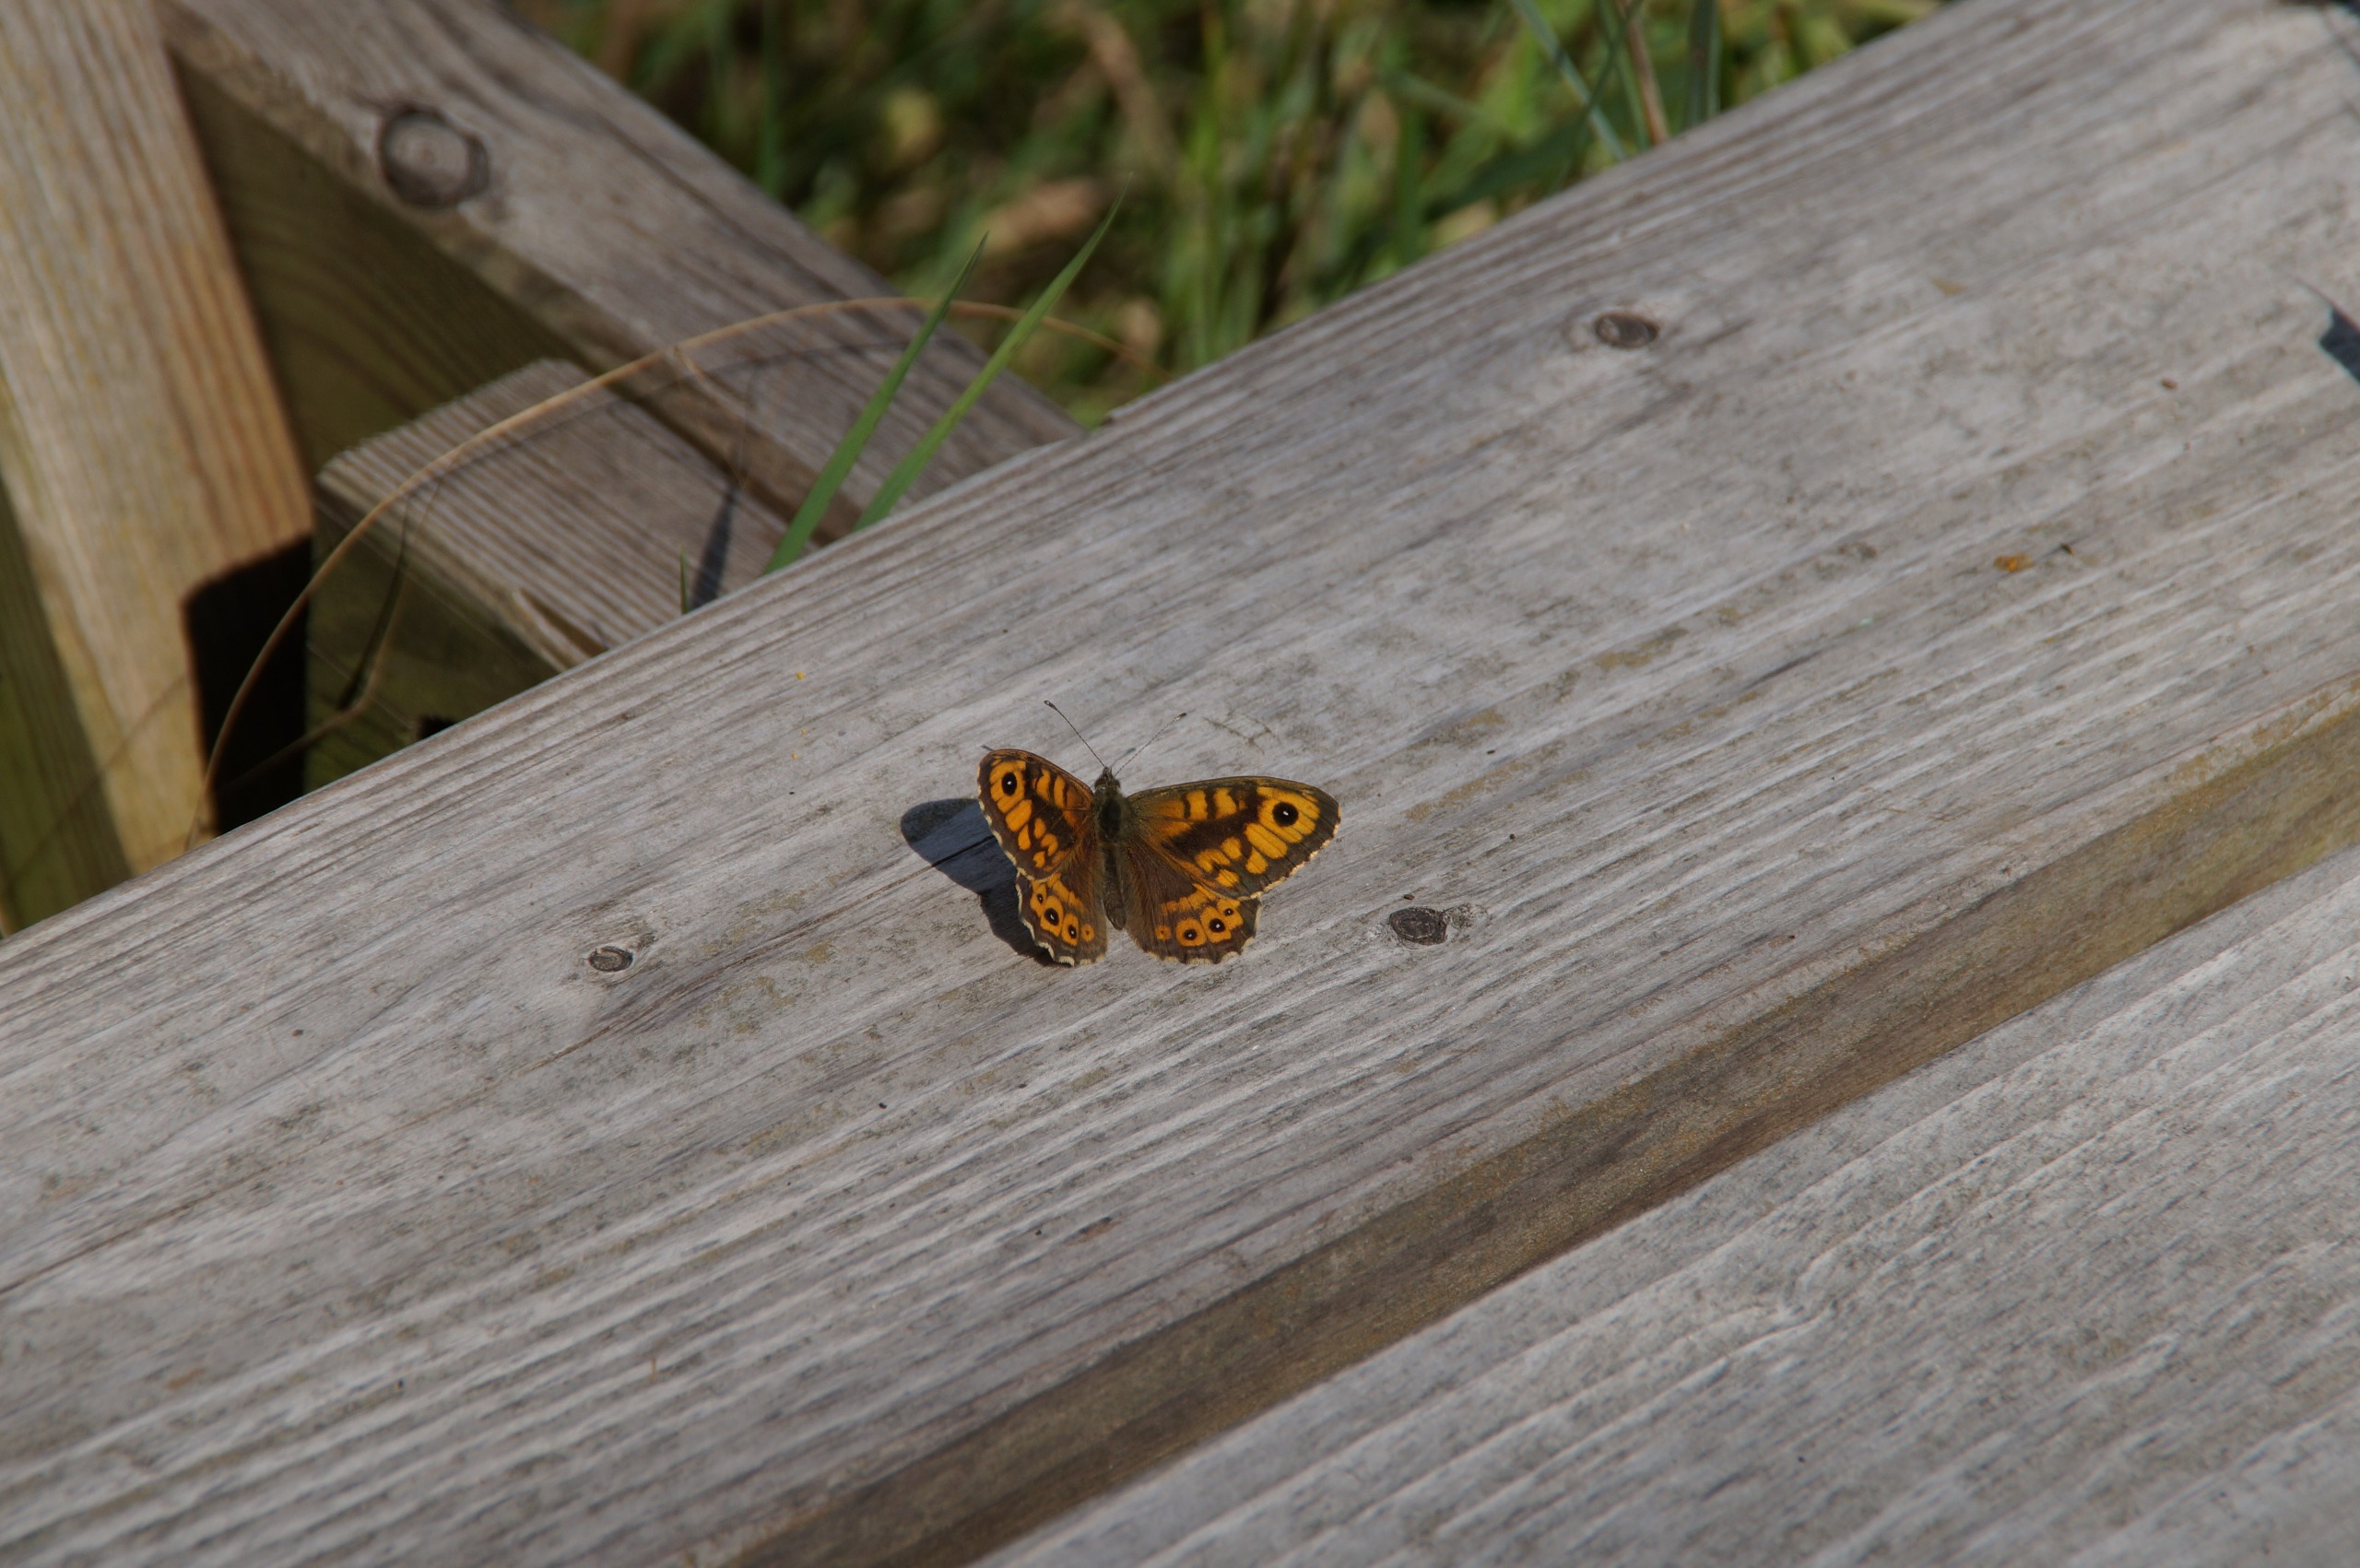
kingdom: Animalia
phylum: Arthropoda
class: Insecta
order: Lepidoptera
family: Nymphalidae
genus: Pararge
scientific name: Pararge Lasiommata megera
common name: Vejrandøje
